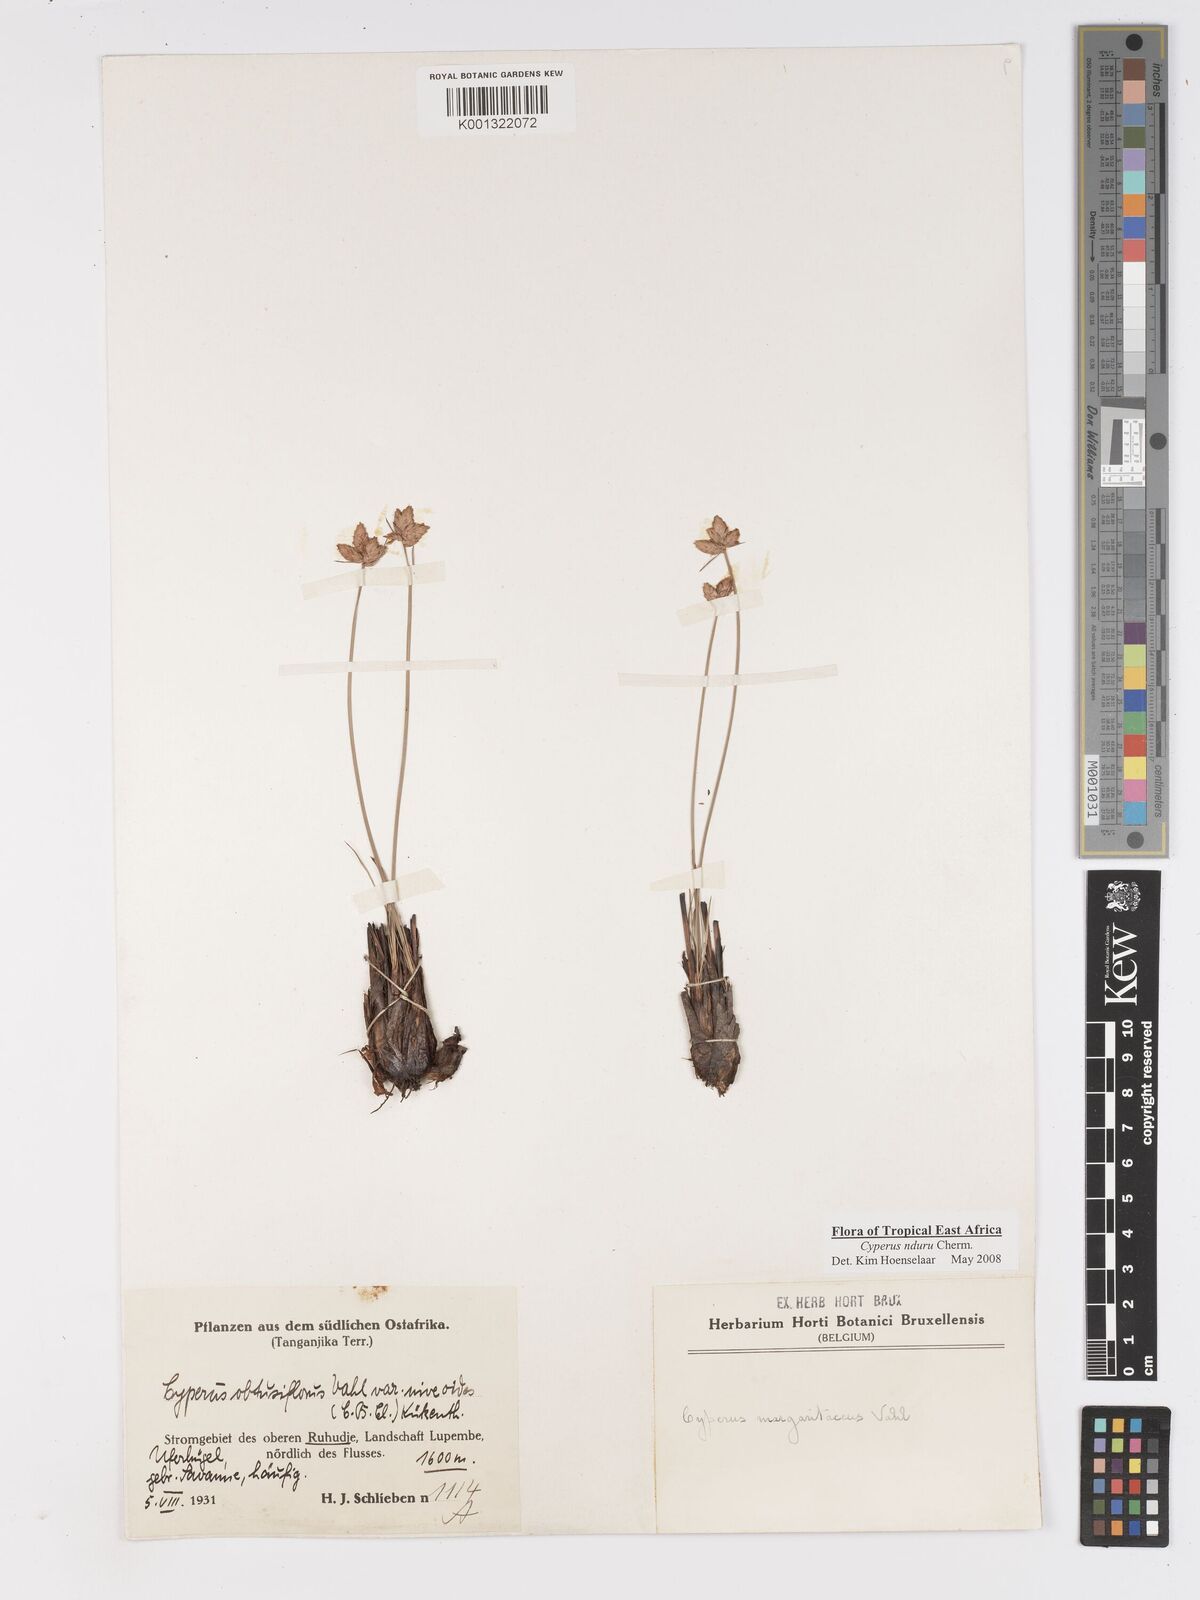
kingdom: Plantae
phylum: Tracheophyta
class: Liliopsida
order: Poales
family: Cyperaceae
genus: Cyperus
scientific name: Cyperus nduru
